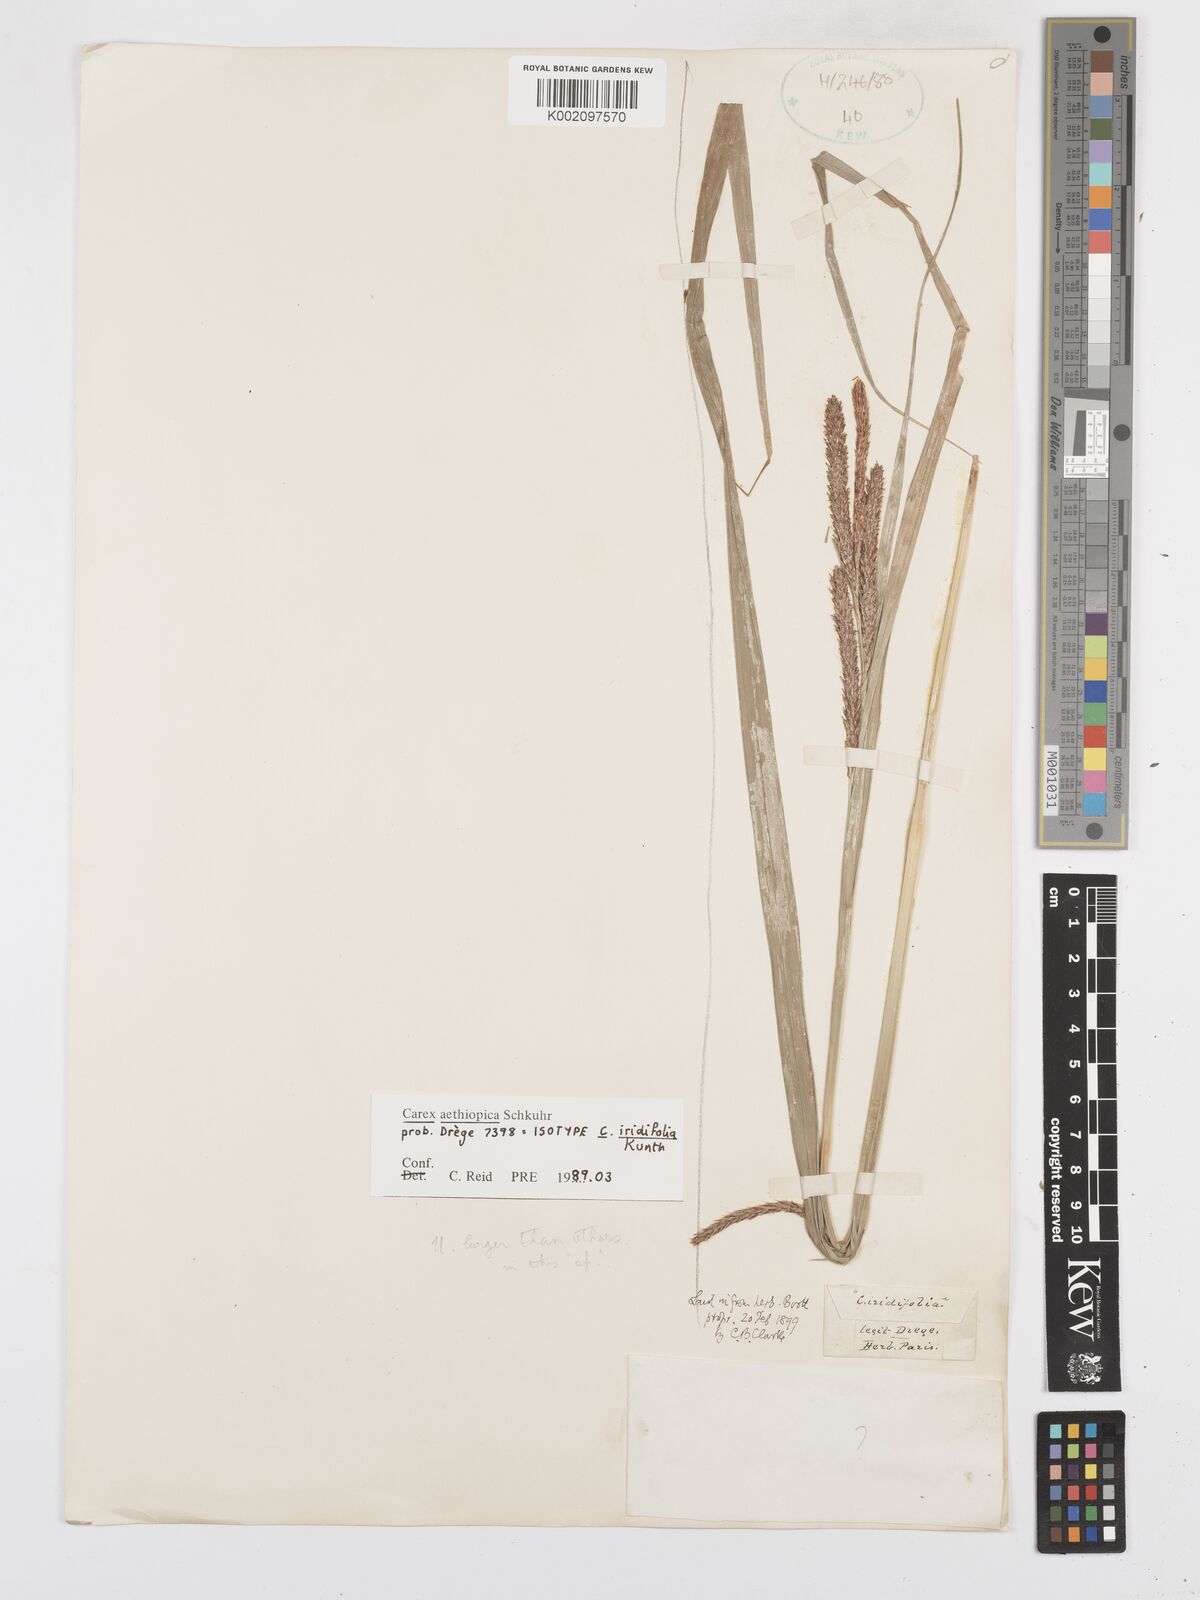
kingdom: Plantae
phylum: Tracheophyta
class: Liliopsida
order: Poales
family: Cyperaceae
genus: Carex
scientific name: Carex aethiopica
